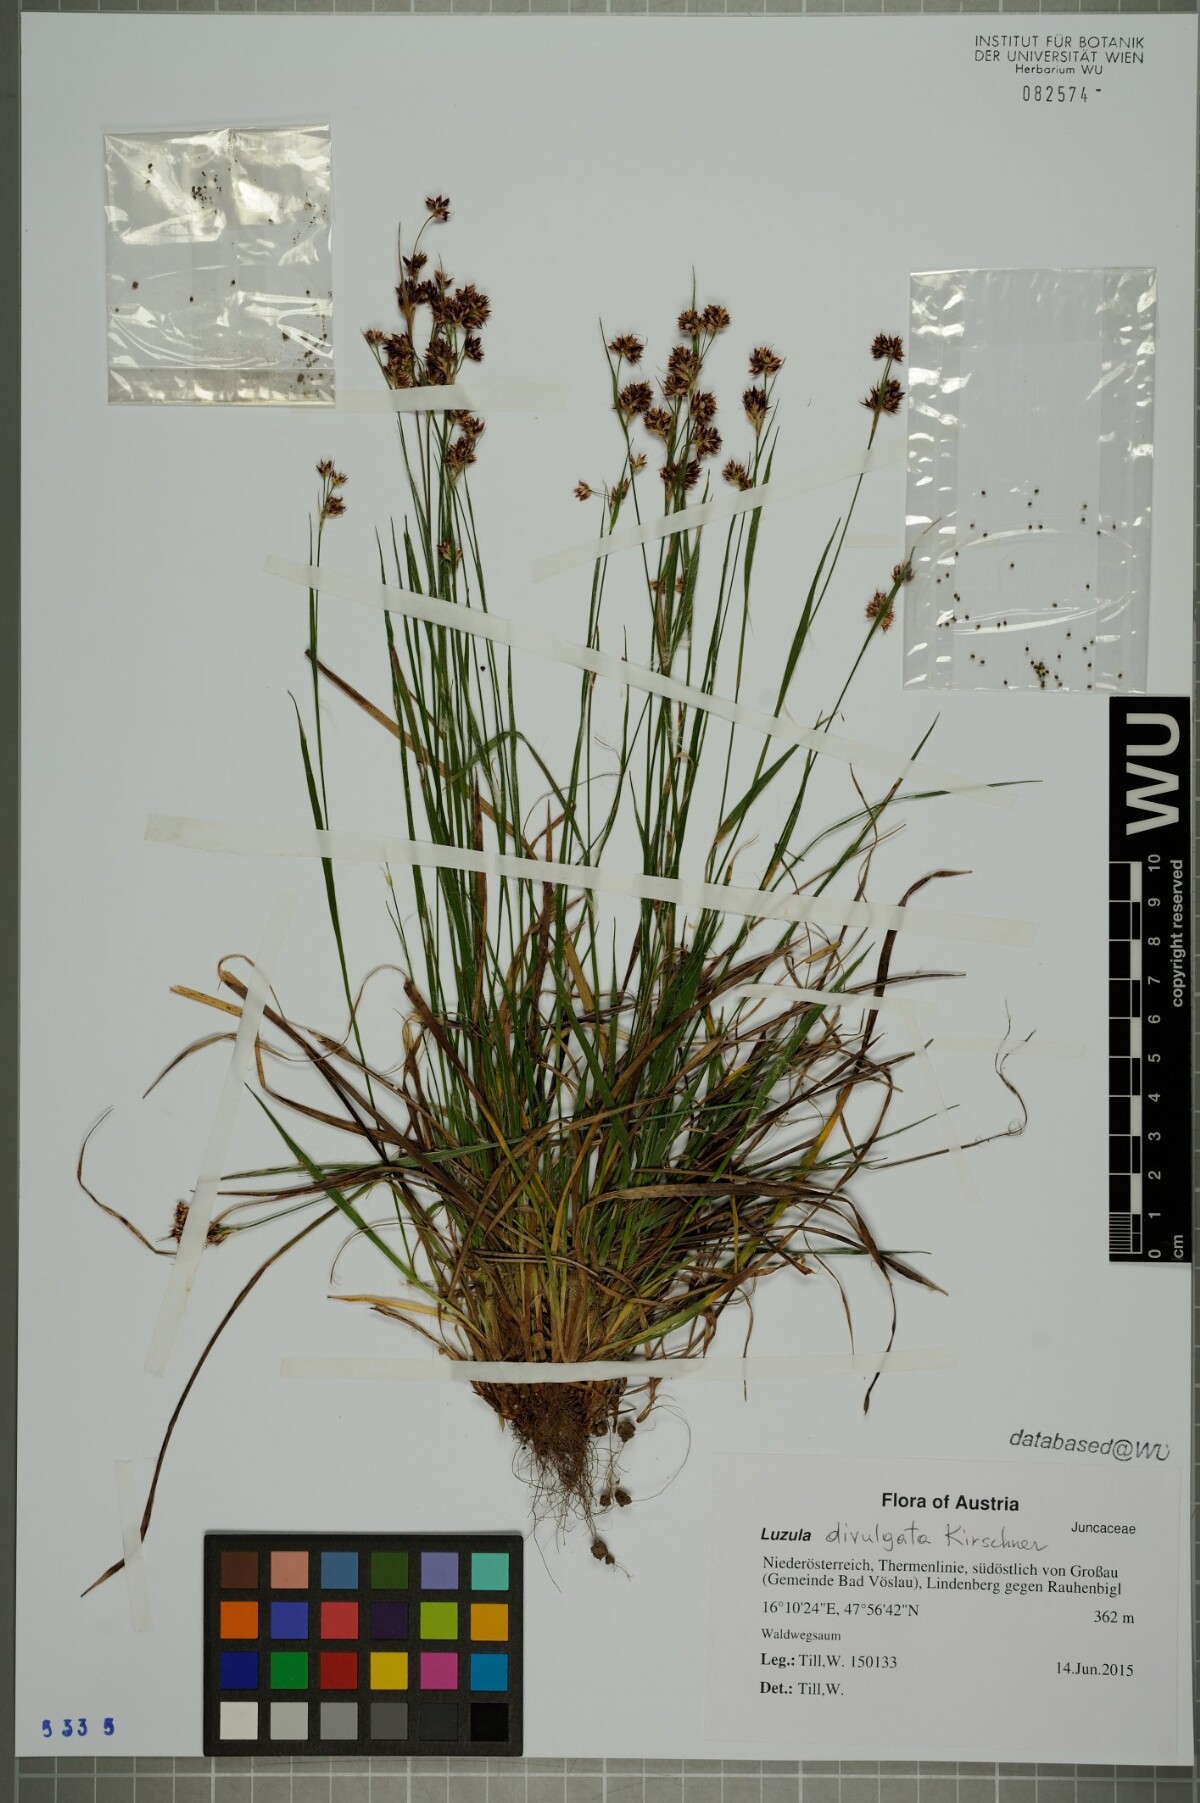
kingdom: Plantae
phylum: Tracheophyta
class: Liliopsida
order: Poales
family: Juncaceae
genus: Luzula
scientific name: Luzula divulgata
